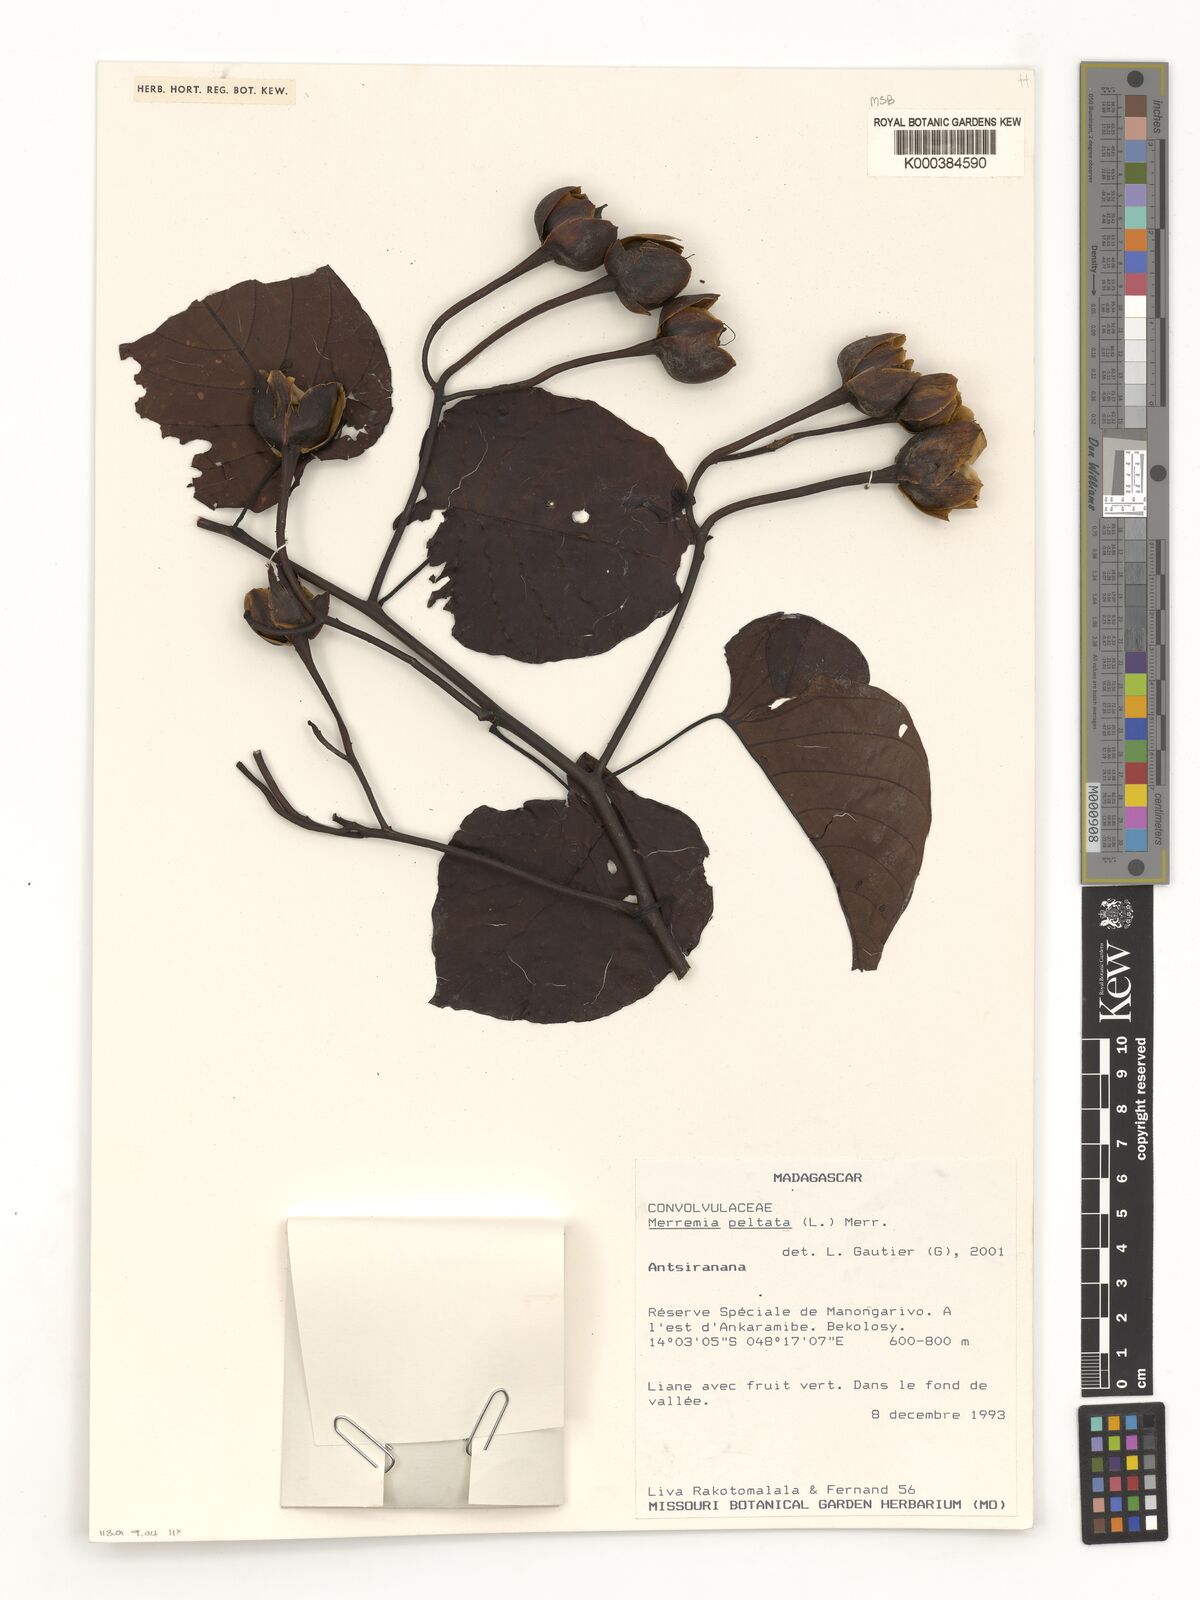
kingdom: Plantae
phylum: Tracheophyta
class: Magnoliopsida
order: Solanales
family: Convolvulaceae
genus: Decalobanthus
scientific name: Decalobanthus peltatus
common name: Merremia
